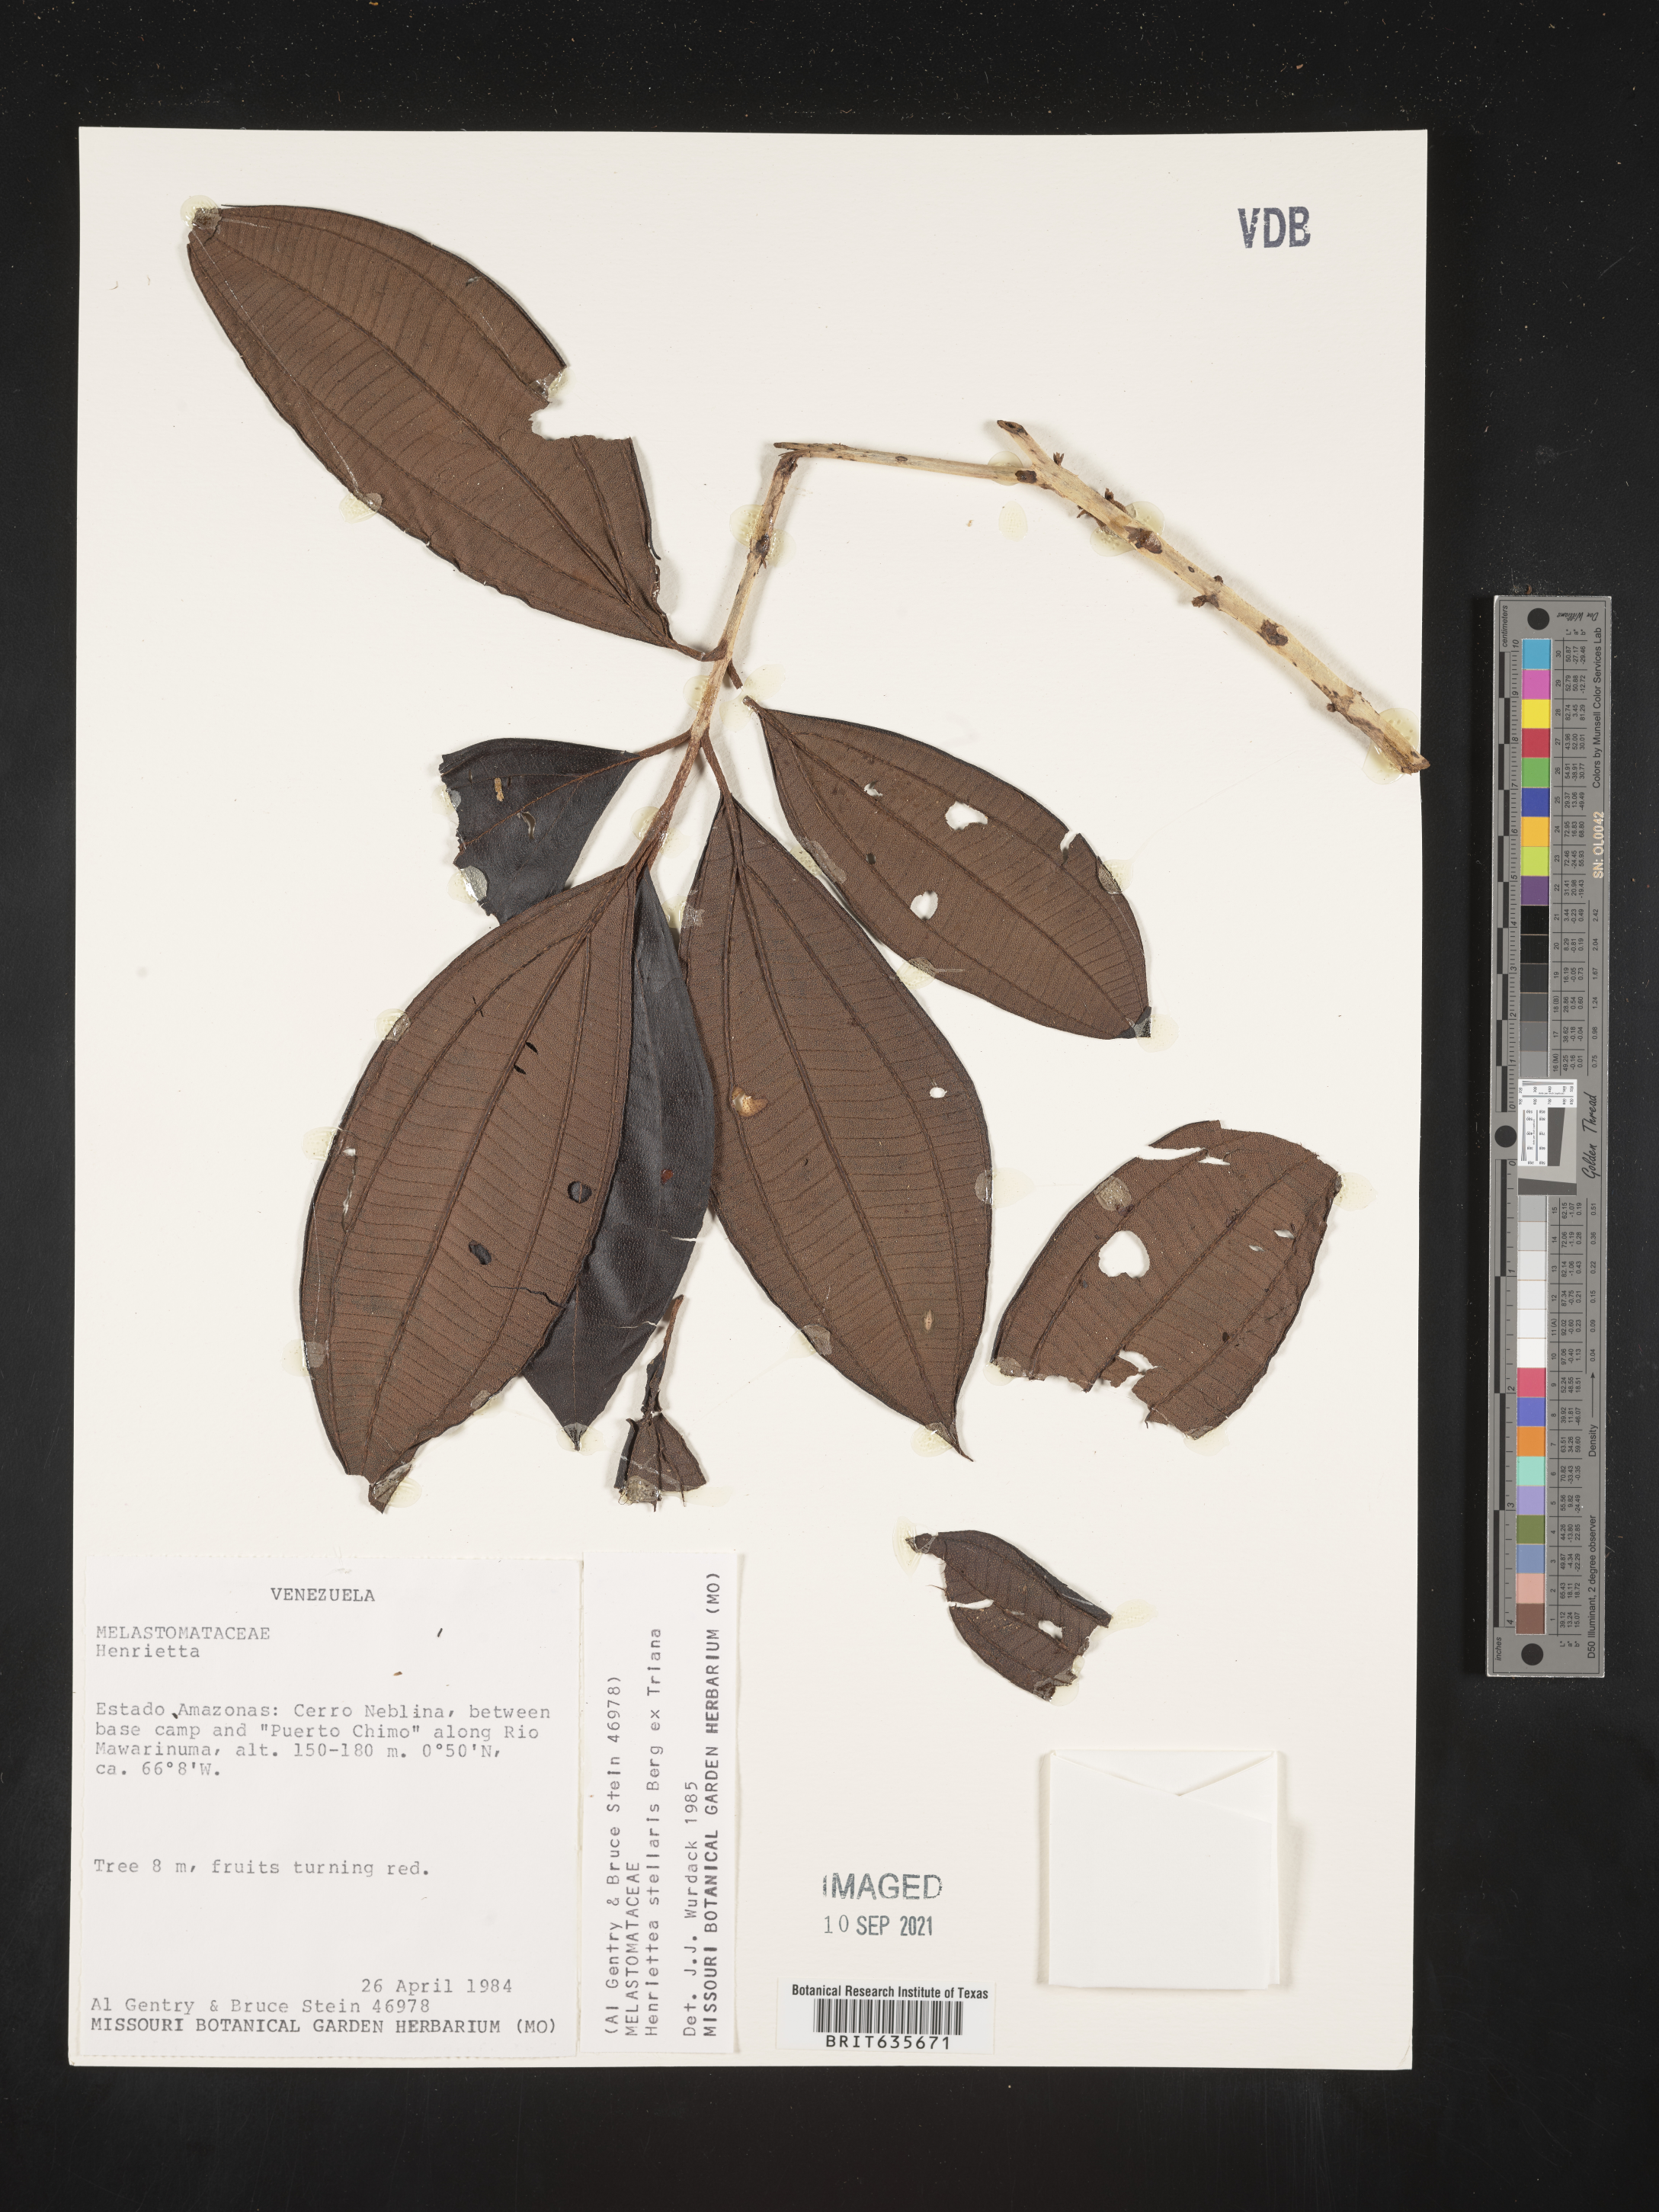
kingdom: Plantae
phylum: Tracheophyta
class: Magnoliopsida
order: Myrtales
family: Melastomataceae
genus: Henriettea
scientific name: Henriettea
